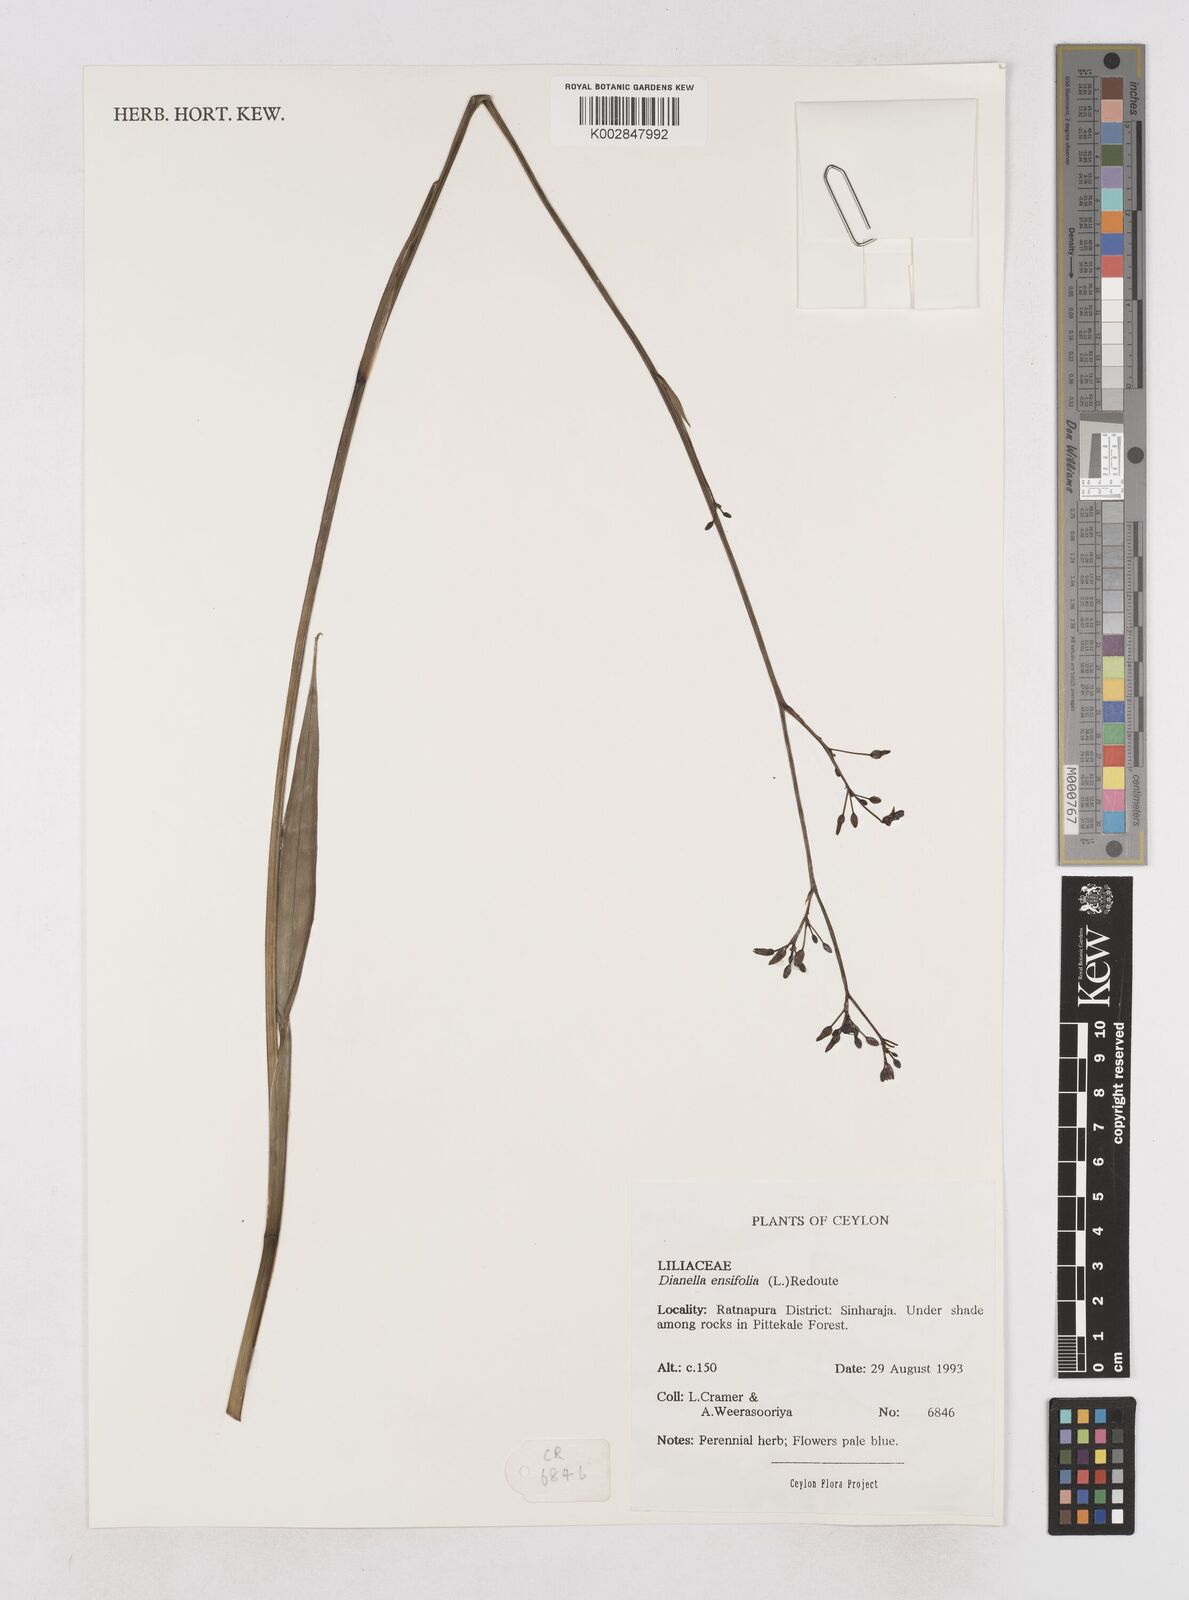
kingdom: Plantae
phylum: Tracheophyta
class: Liliopsida
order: Asparagales
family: Asphodelaceae
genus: Dianella
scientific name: Dianella ensifolia
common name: New zealand lilyplant
